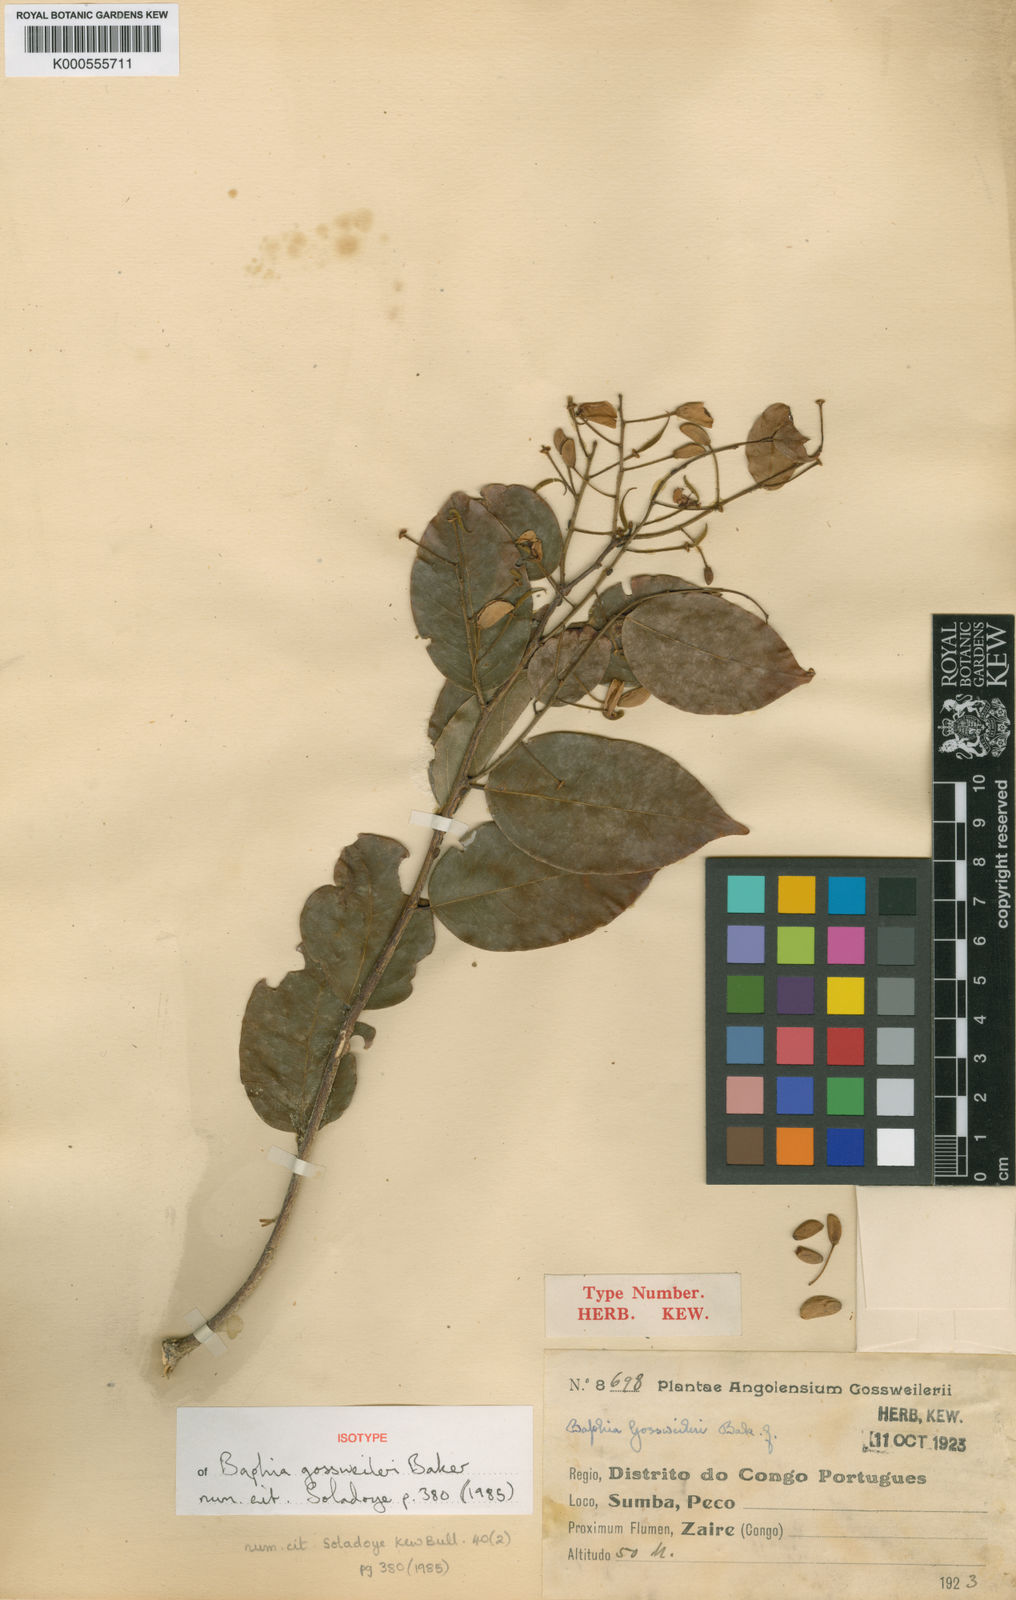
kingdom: Plantae
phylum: Tracheophyta
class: Magnoliopsida
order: Fabales
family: Fabaceae
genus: Baphia
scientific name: Baphia gossweileri
